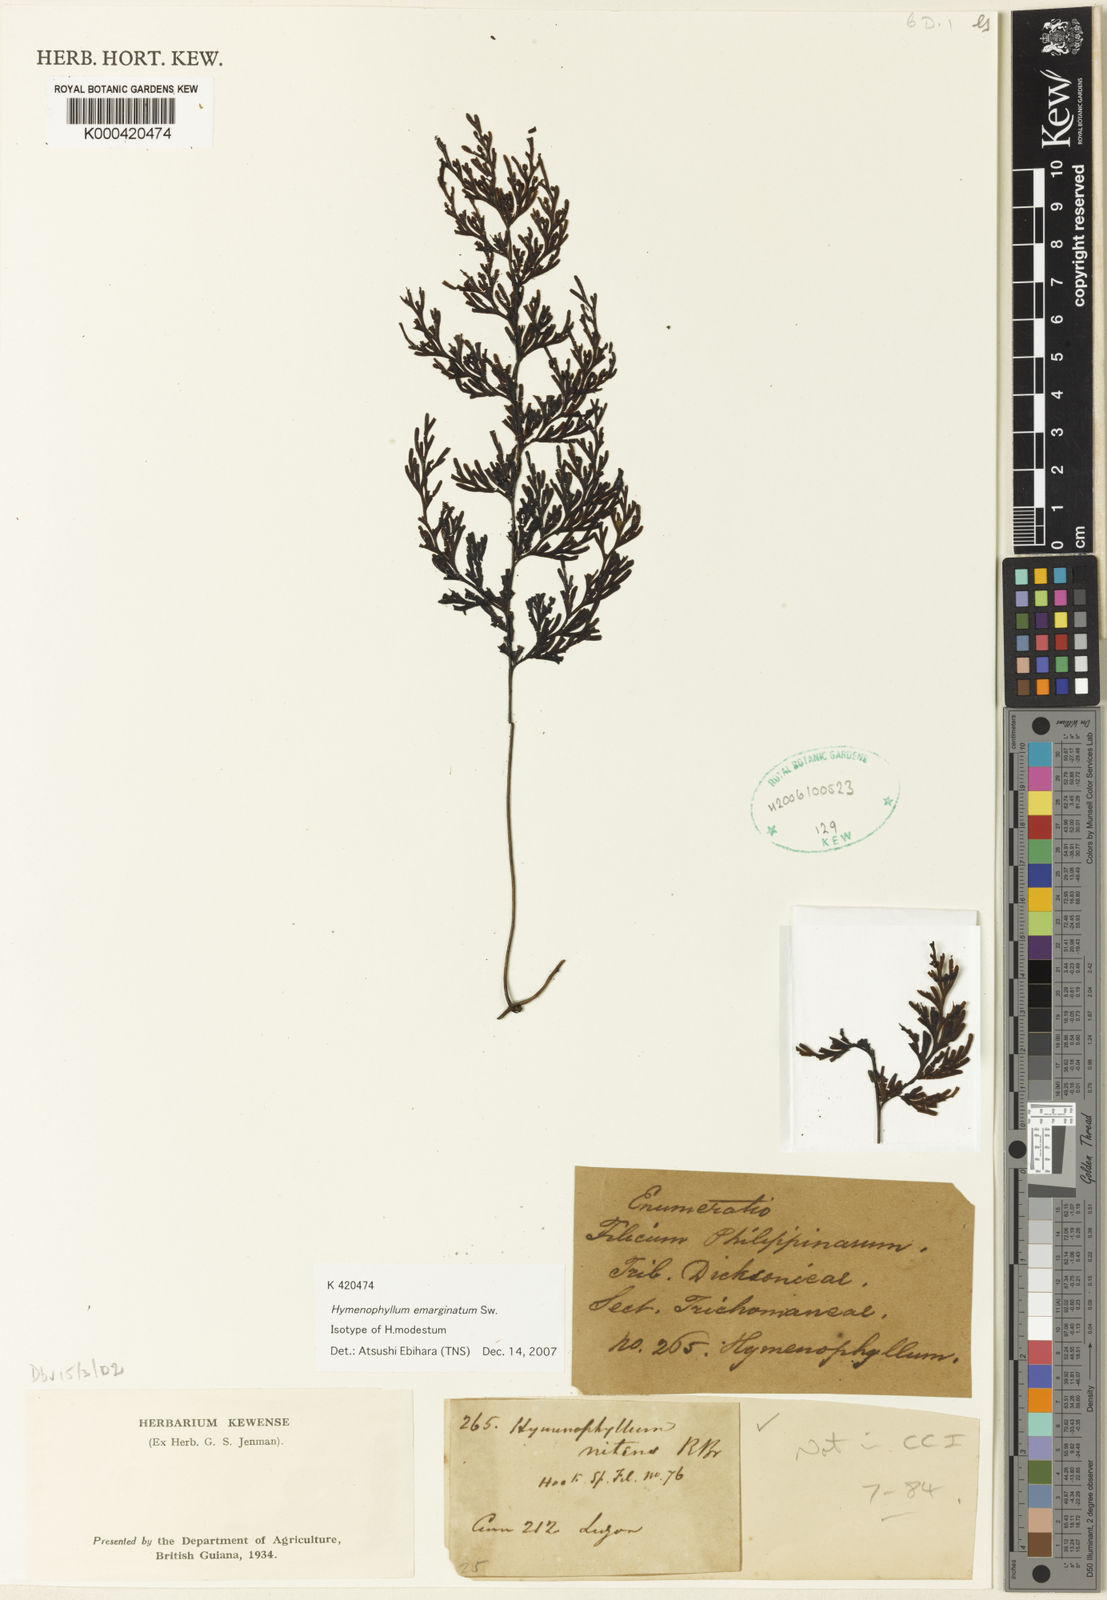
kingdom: Plantae
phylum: Tracheophyta
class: Polypodiopsida
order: Hymenophyllales
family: Hymenophyllaceae
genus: Hymenophyllum
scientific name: Hymenophyllum emarginatum
